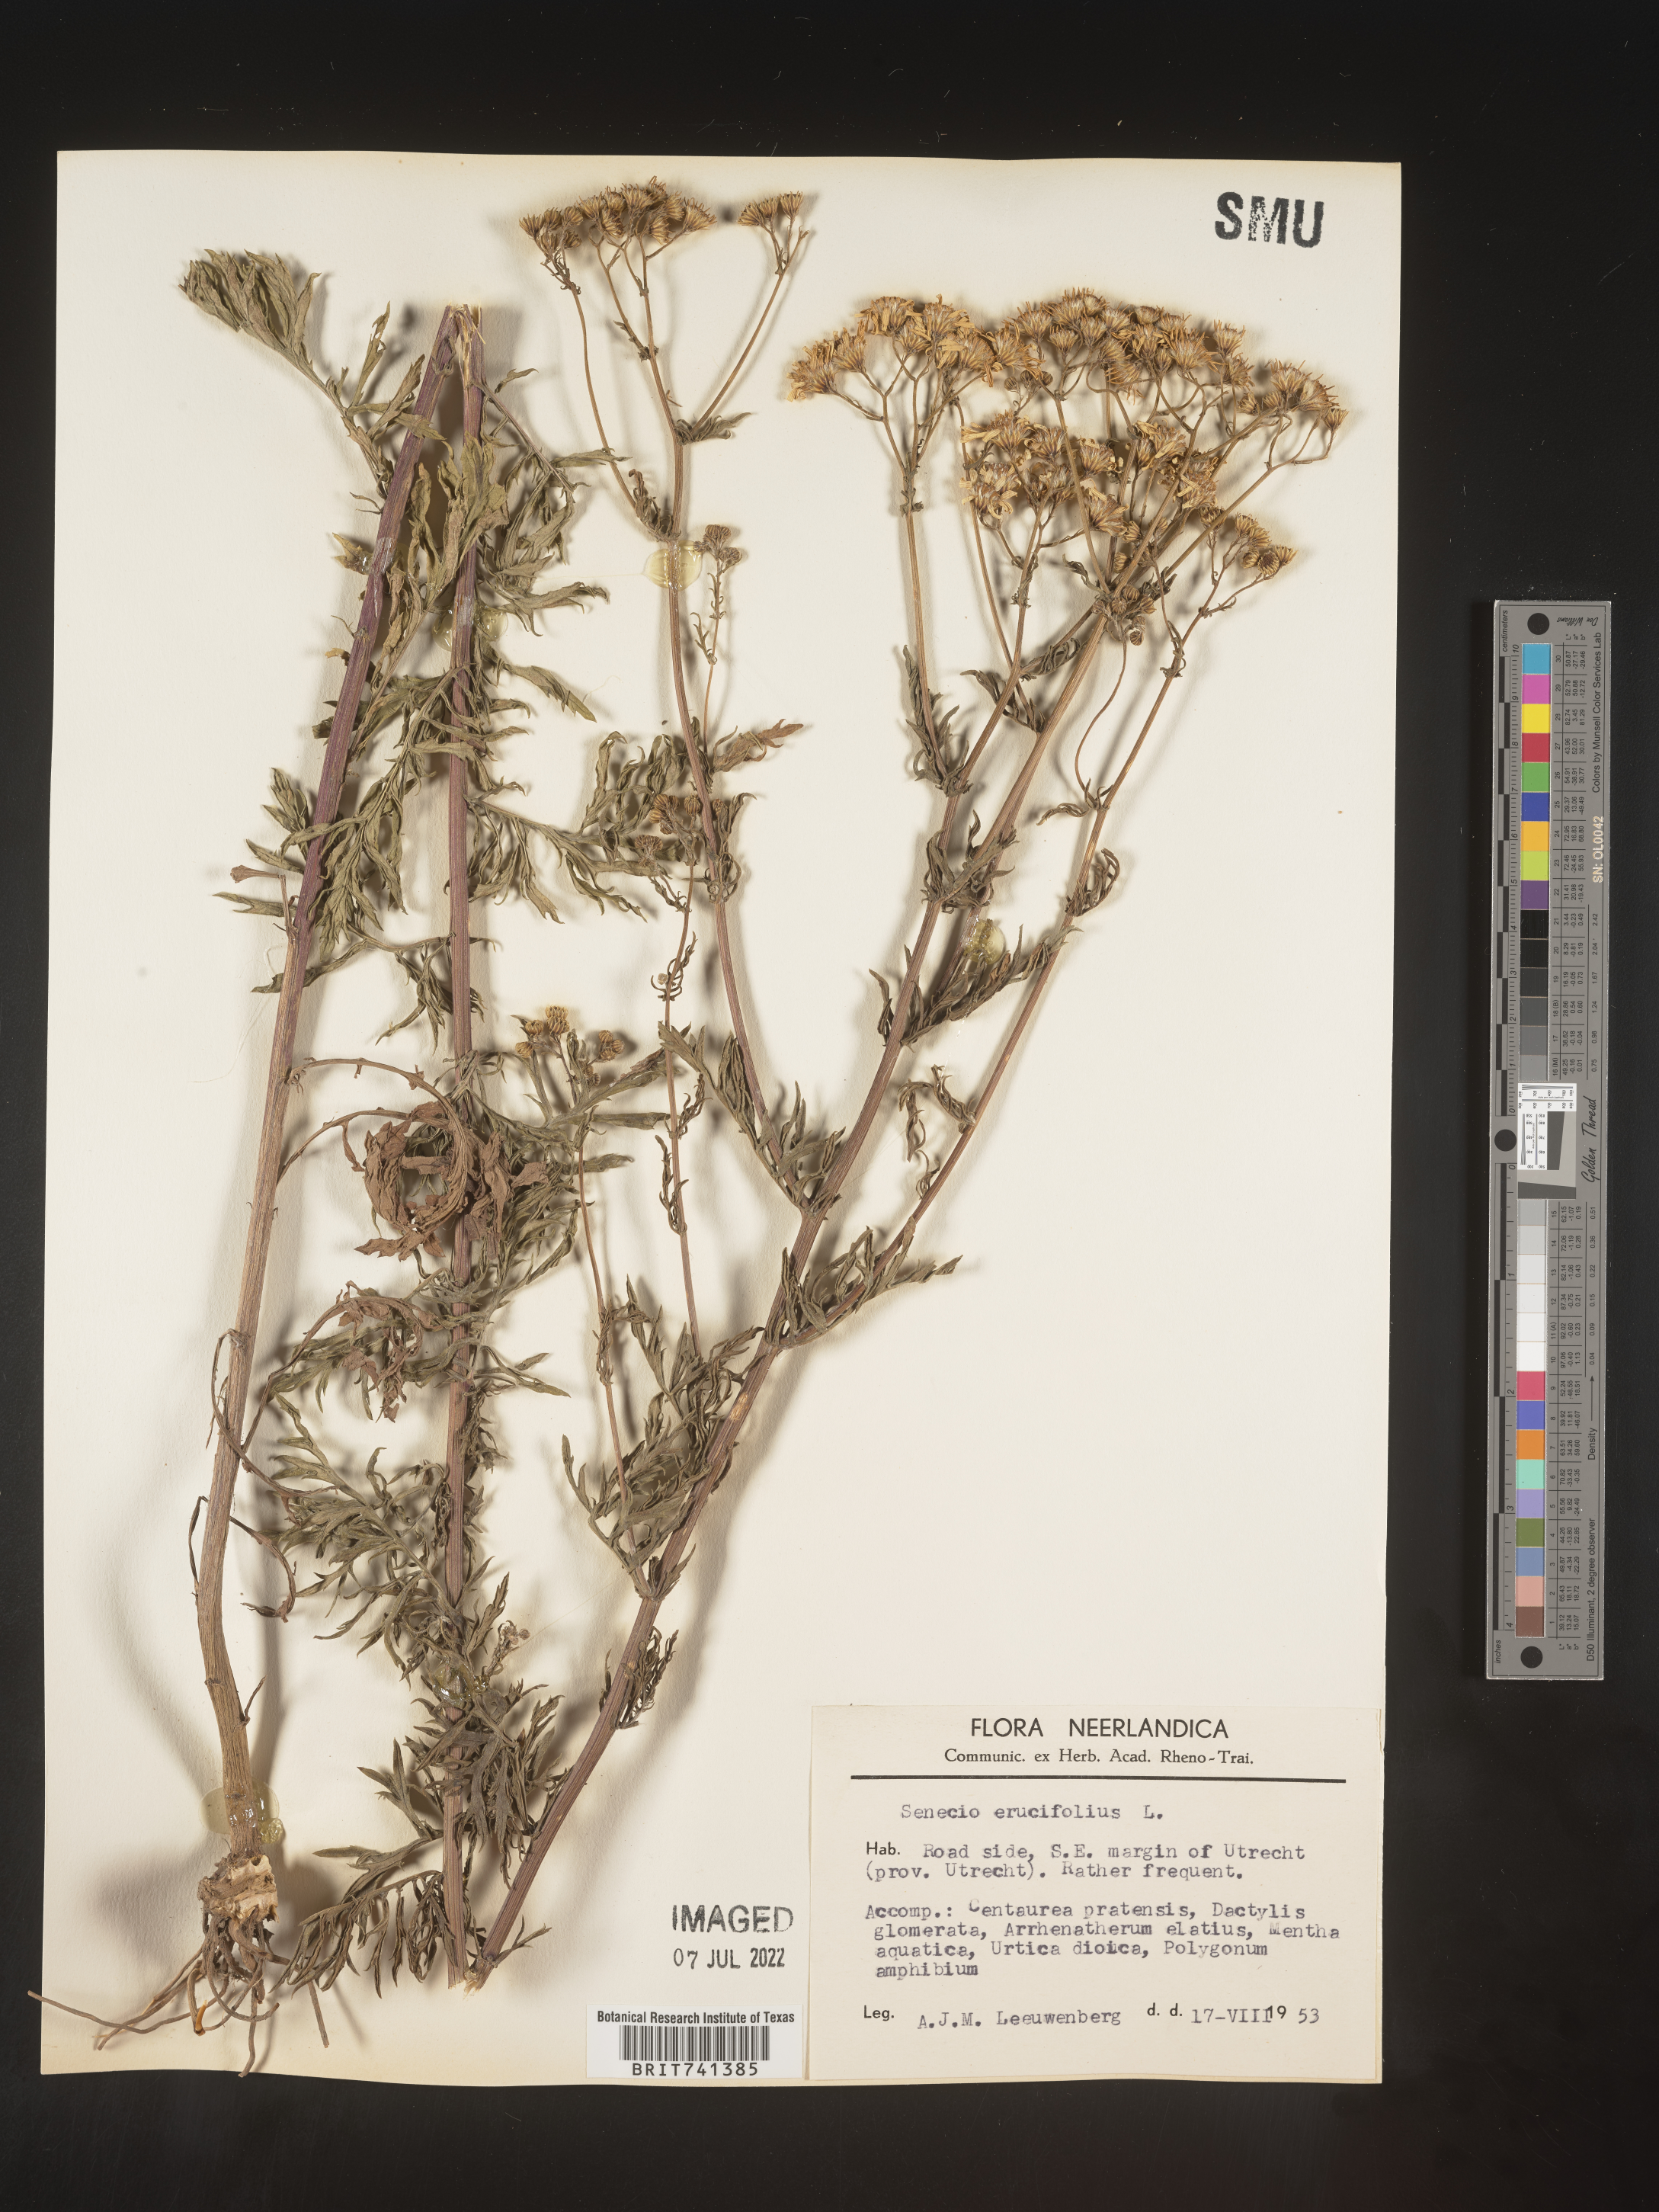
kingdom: Plantae
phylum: Tracheophyta
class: Magnoliopsida
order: Asterales
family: Asteraceae
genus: Senecio
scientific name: Senecio
